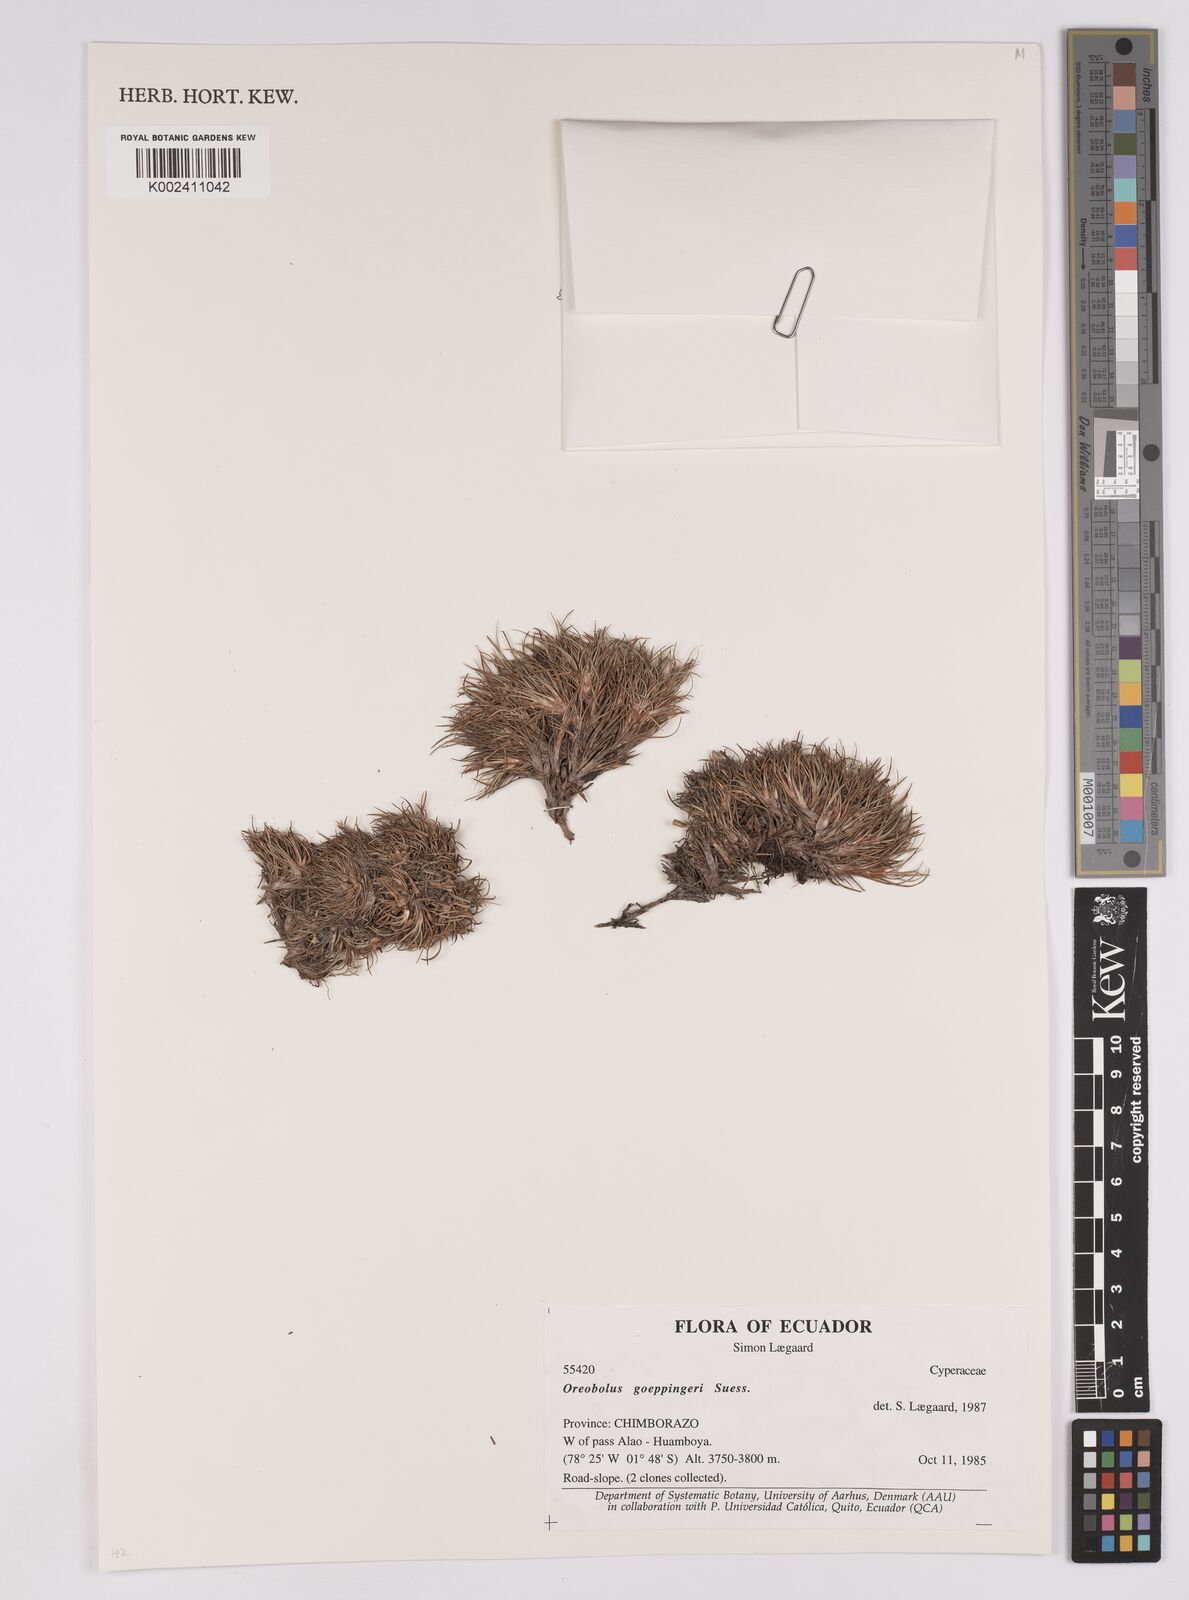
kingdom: Plantae
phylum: Tracheophyta
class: Liliopsida
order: Poales
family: Cyperaceae
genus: Oreobolus
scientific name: Oreobolus goeppingeri
